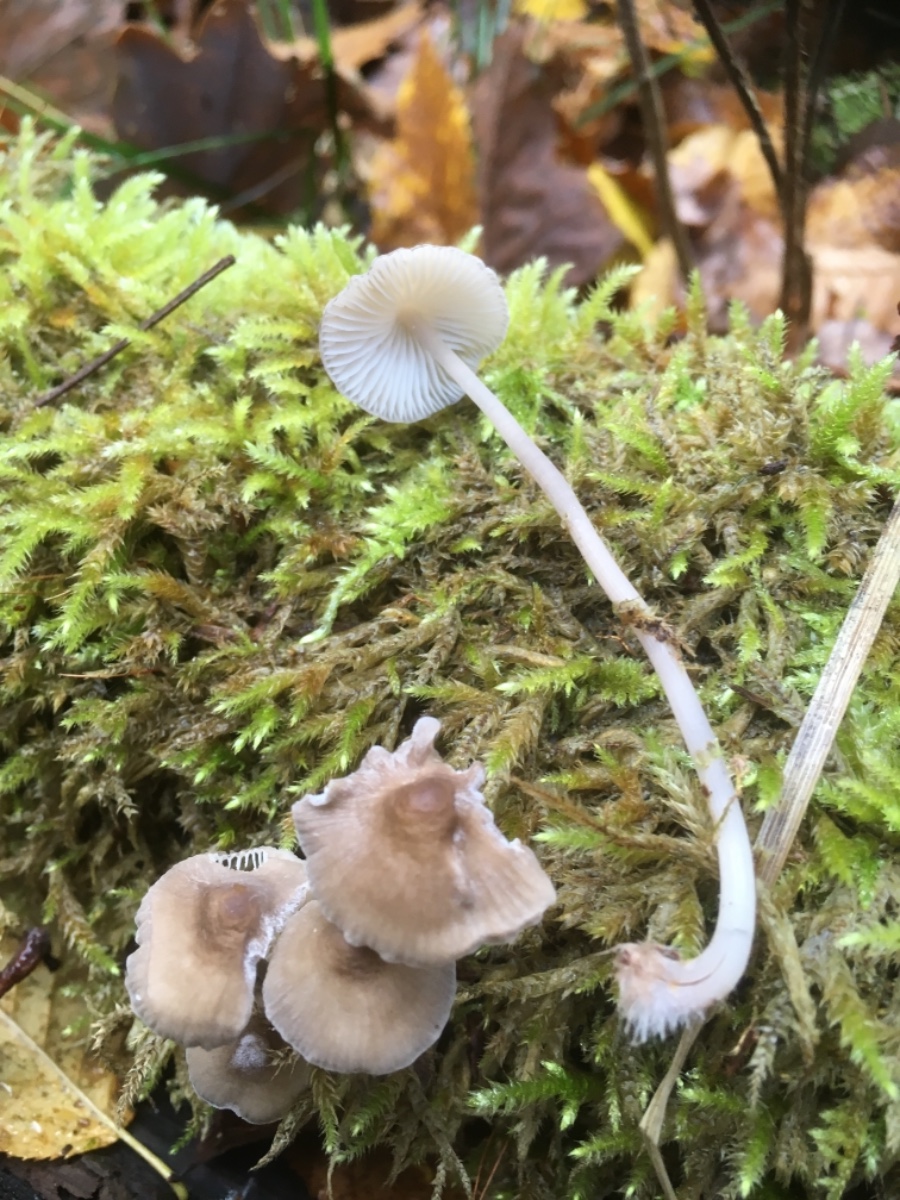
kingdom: Fungi
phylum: Basidiomycota
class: Agaricomycetes
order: Agaricales
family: Mycenaceae
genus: Mycena
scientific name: Mycena galericulata
